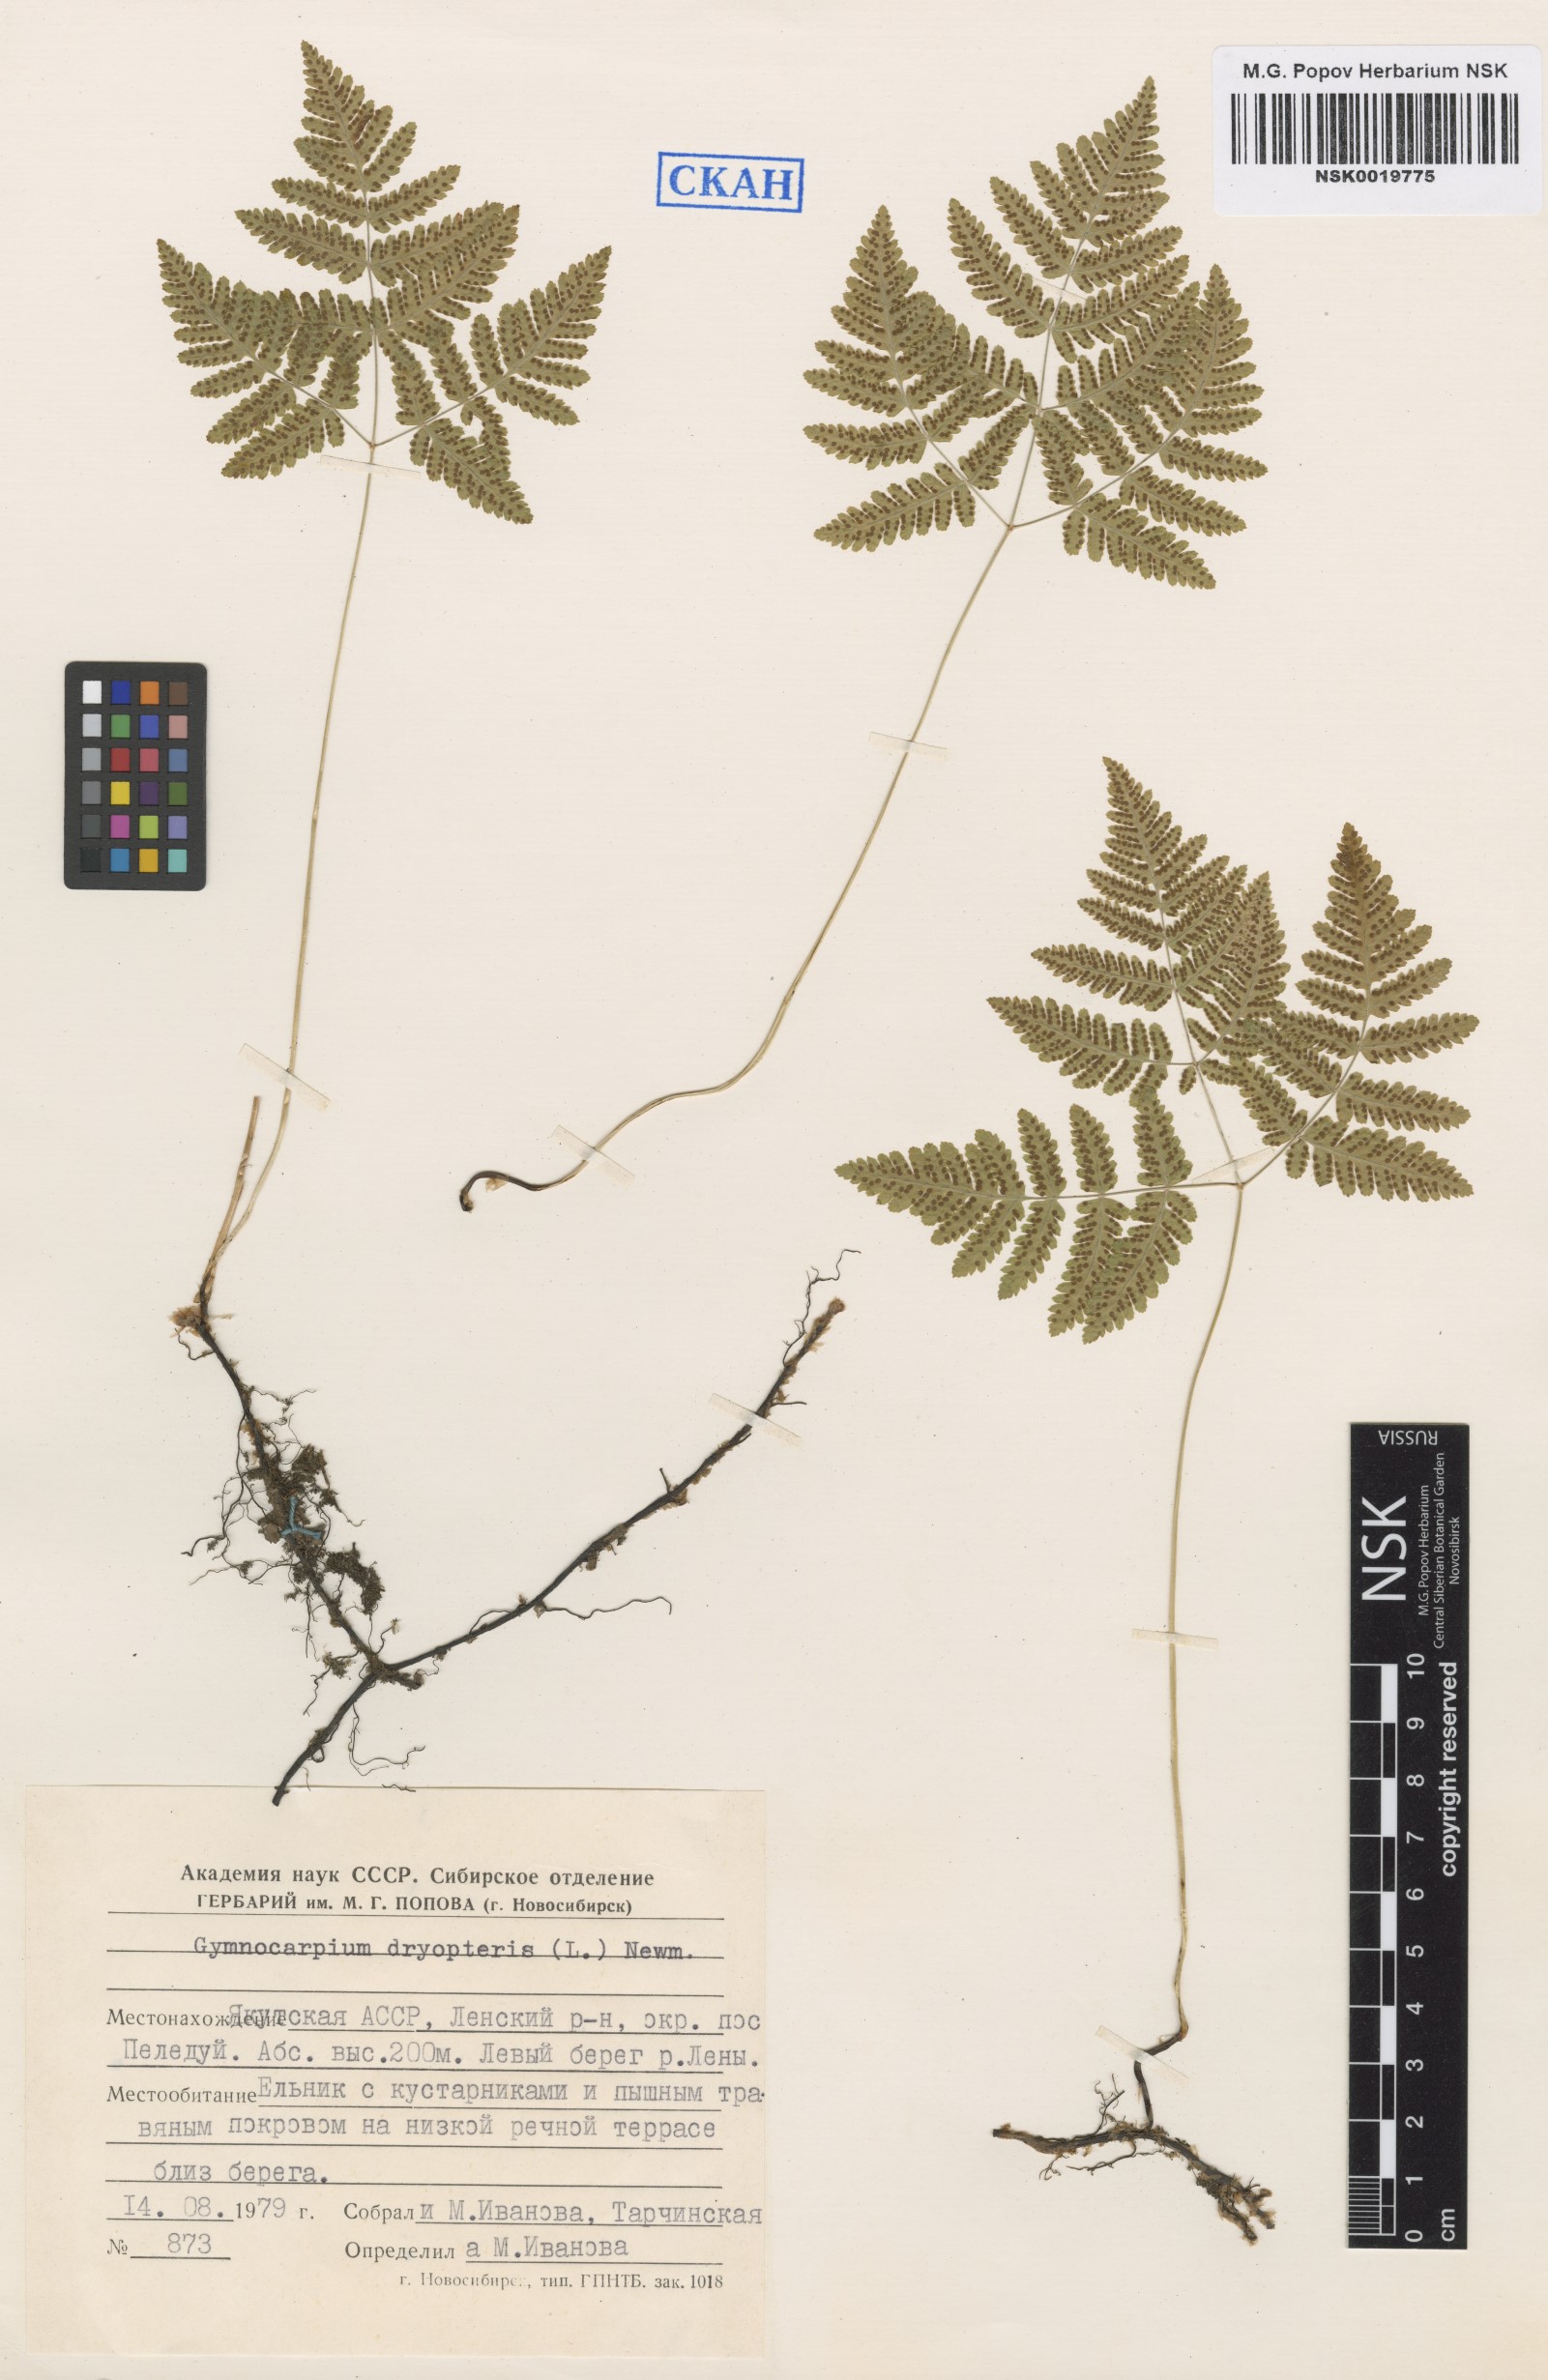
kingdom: Plantae
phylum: Tracheophyta
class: Polypodiopsida
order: Polypodiales
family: Cystopteridaceae
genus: Gymnocarpium
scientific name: Gymnocarpium dryopteris
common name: Oak fern
